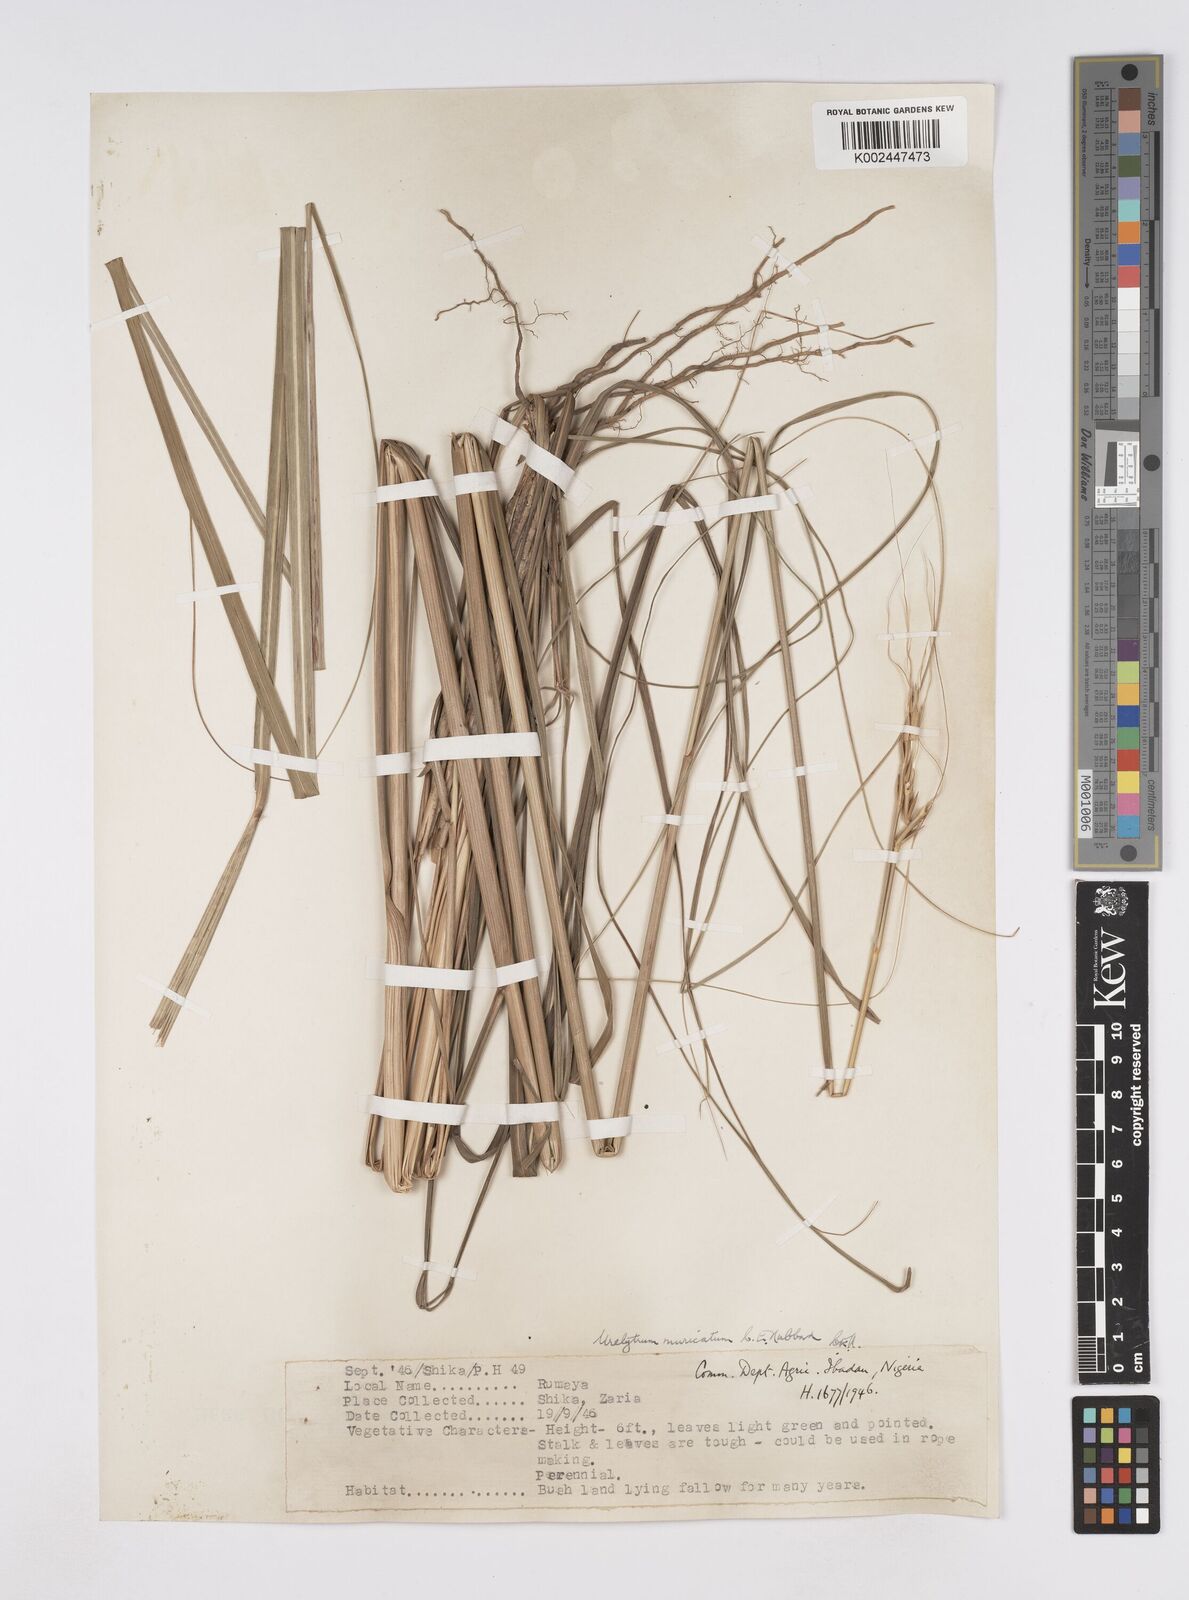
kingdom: Plantae
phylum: Tracheophyta
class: Liliopsida
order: Poales
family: Poaceae
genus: Urelytrum
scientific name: Urelytrum muricatum
